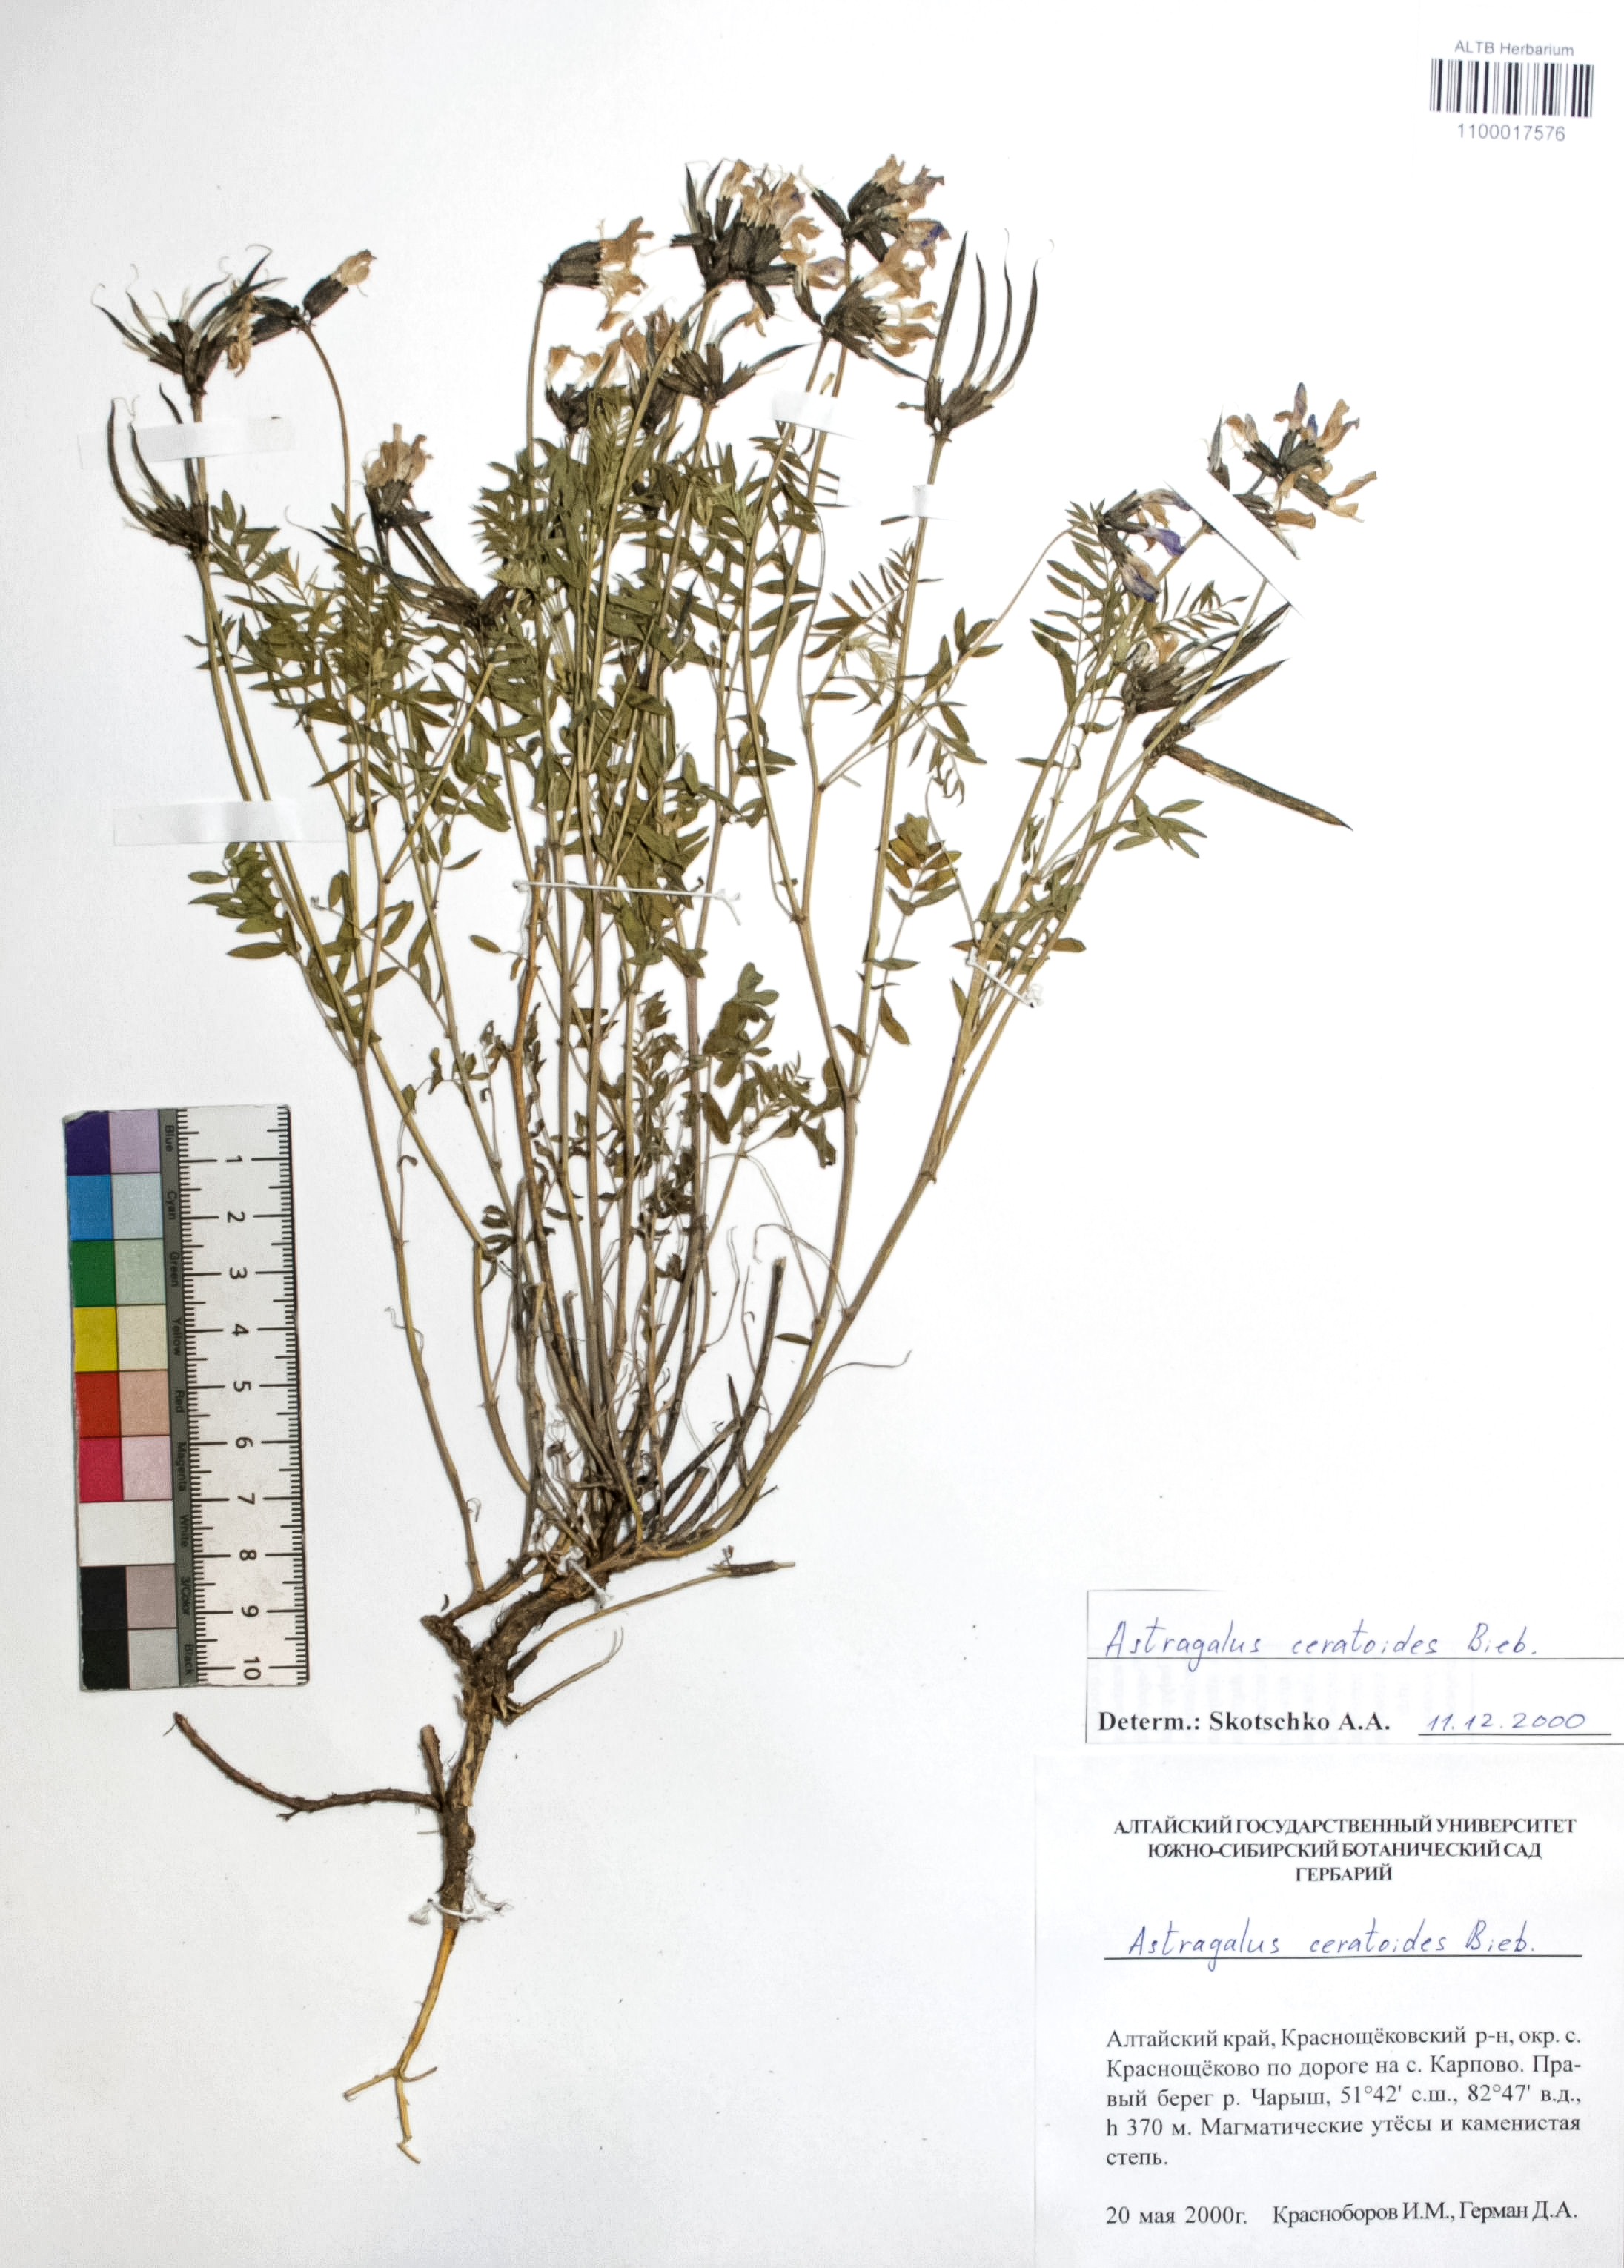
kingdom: Plantae
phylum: Tracheophyta
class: Magnoliopsida
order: Fabales
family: Fabaceae
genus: Astragalus
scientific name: Astragalus ceratoides
